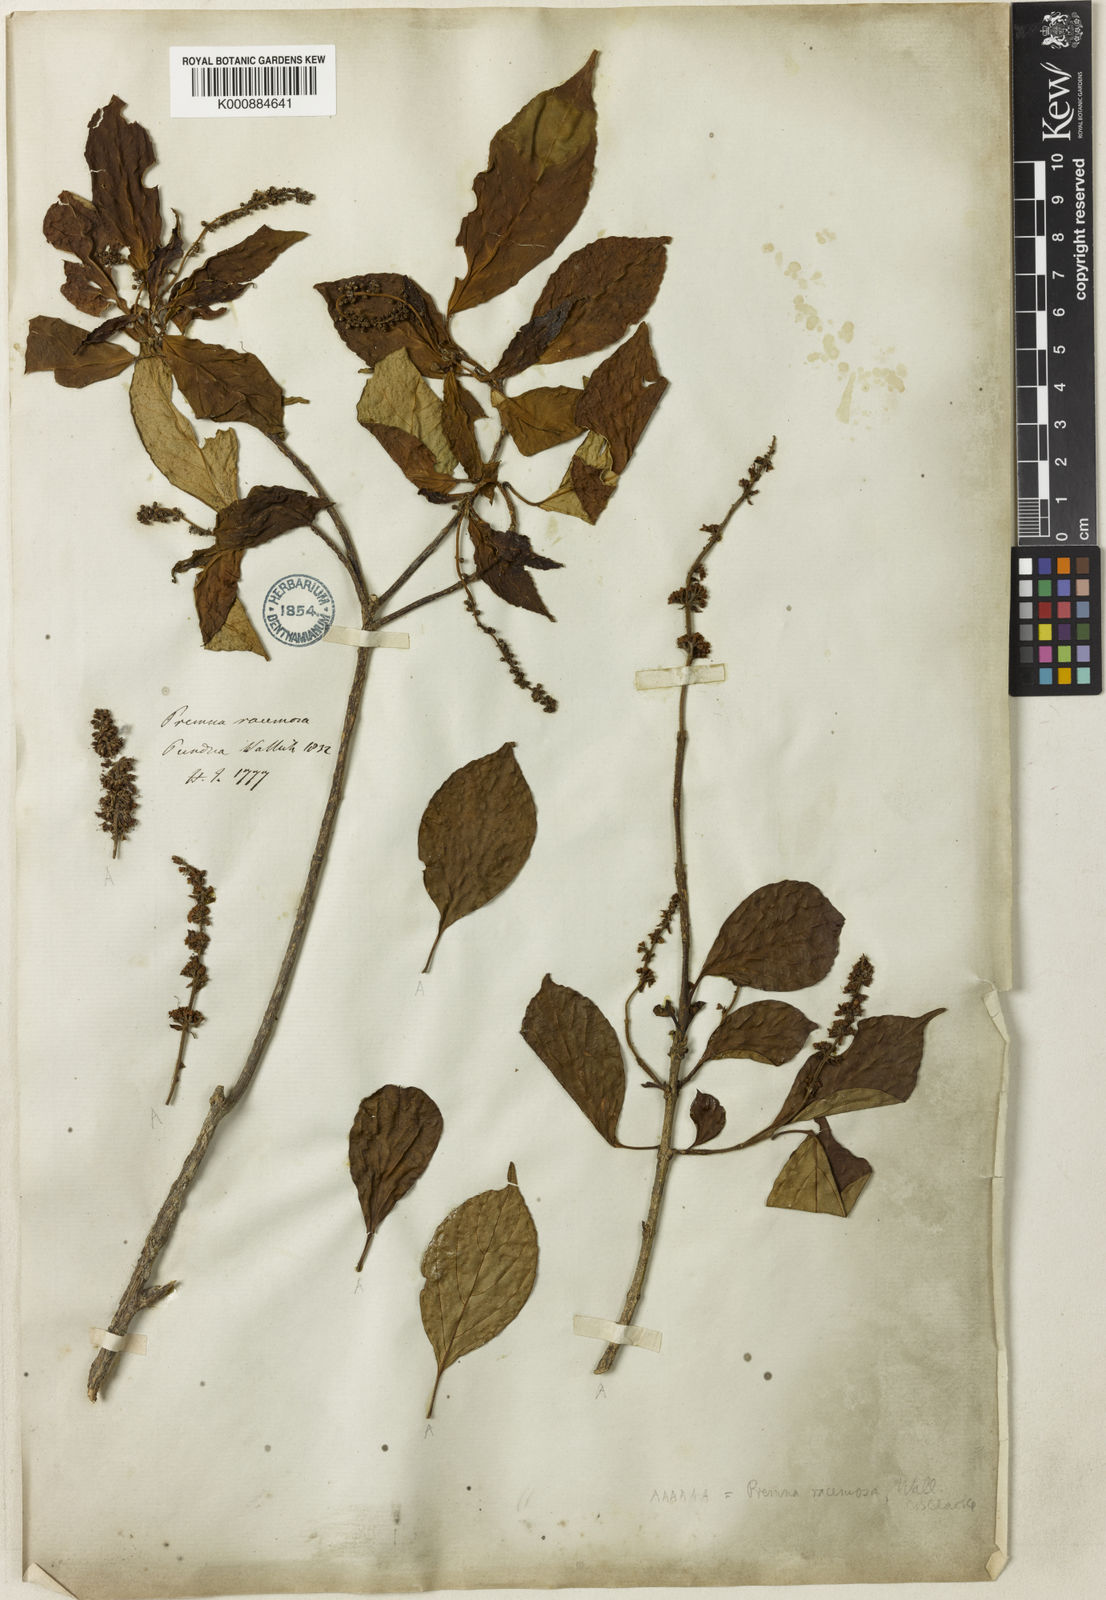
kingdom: Plantae
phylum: Tracheophyta
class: Magnoliopsida
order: Lamiales
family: Lamiaceae
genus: Premna
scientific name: Premna bracteata
